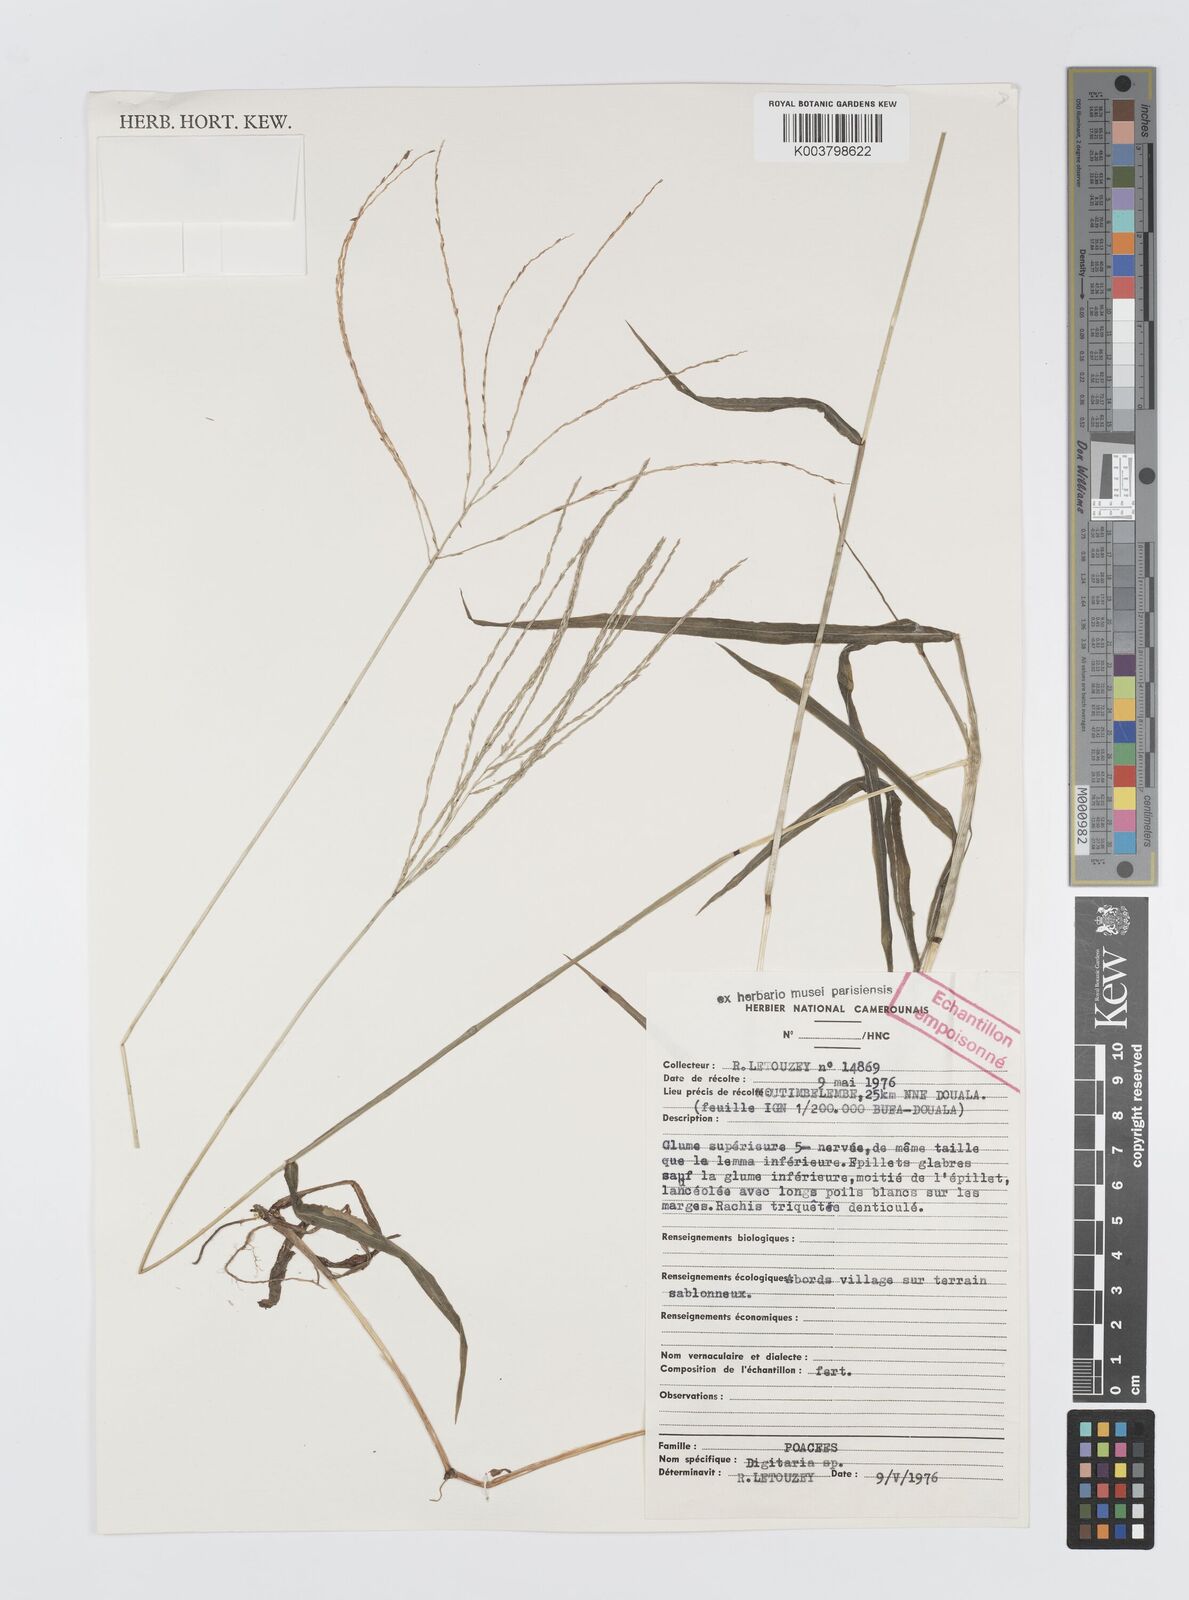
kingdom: Plantae
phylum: Tracheophyta
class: Liliopsida
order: Poales
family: Poaceae
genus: Digitaria
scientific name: Digitaria horizontalis
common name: Jamaican crabgrass
